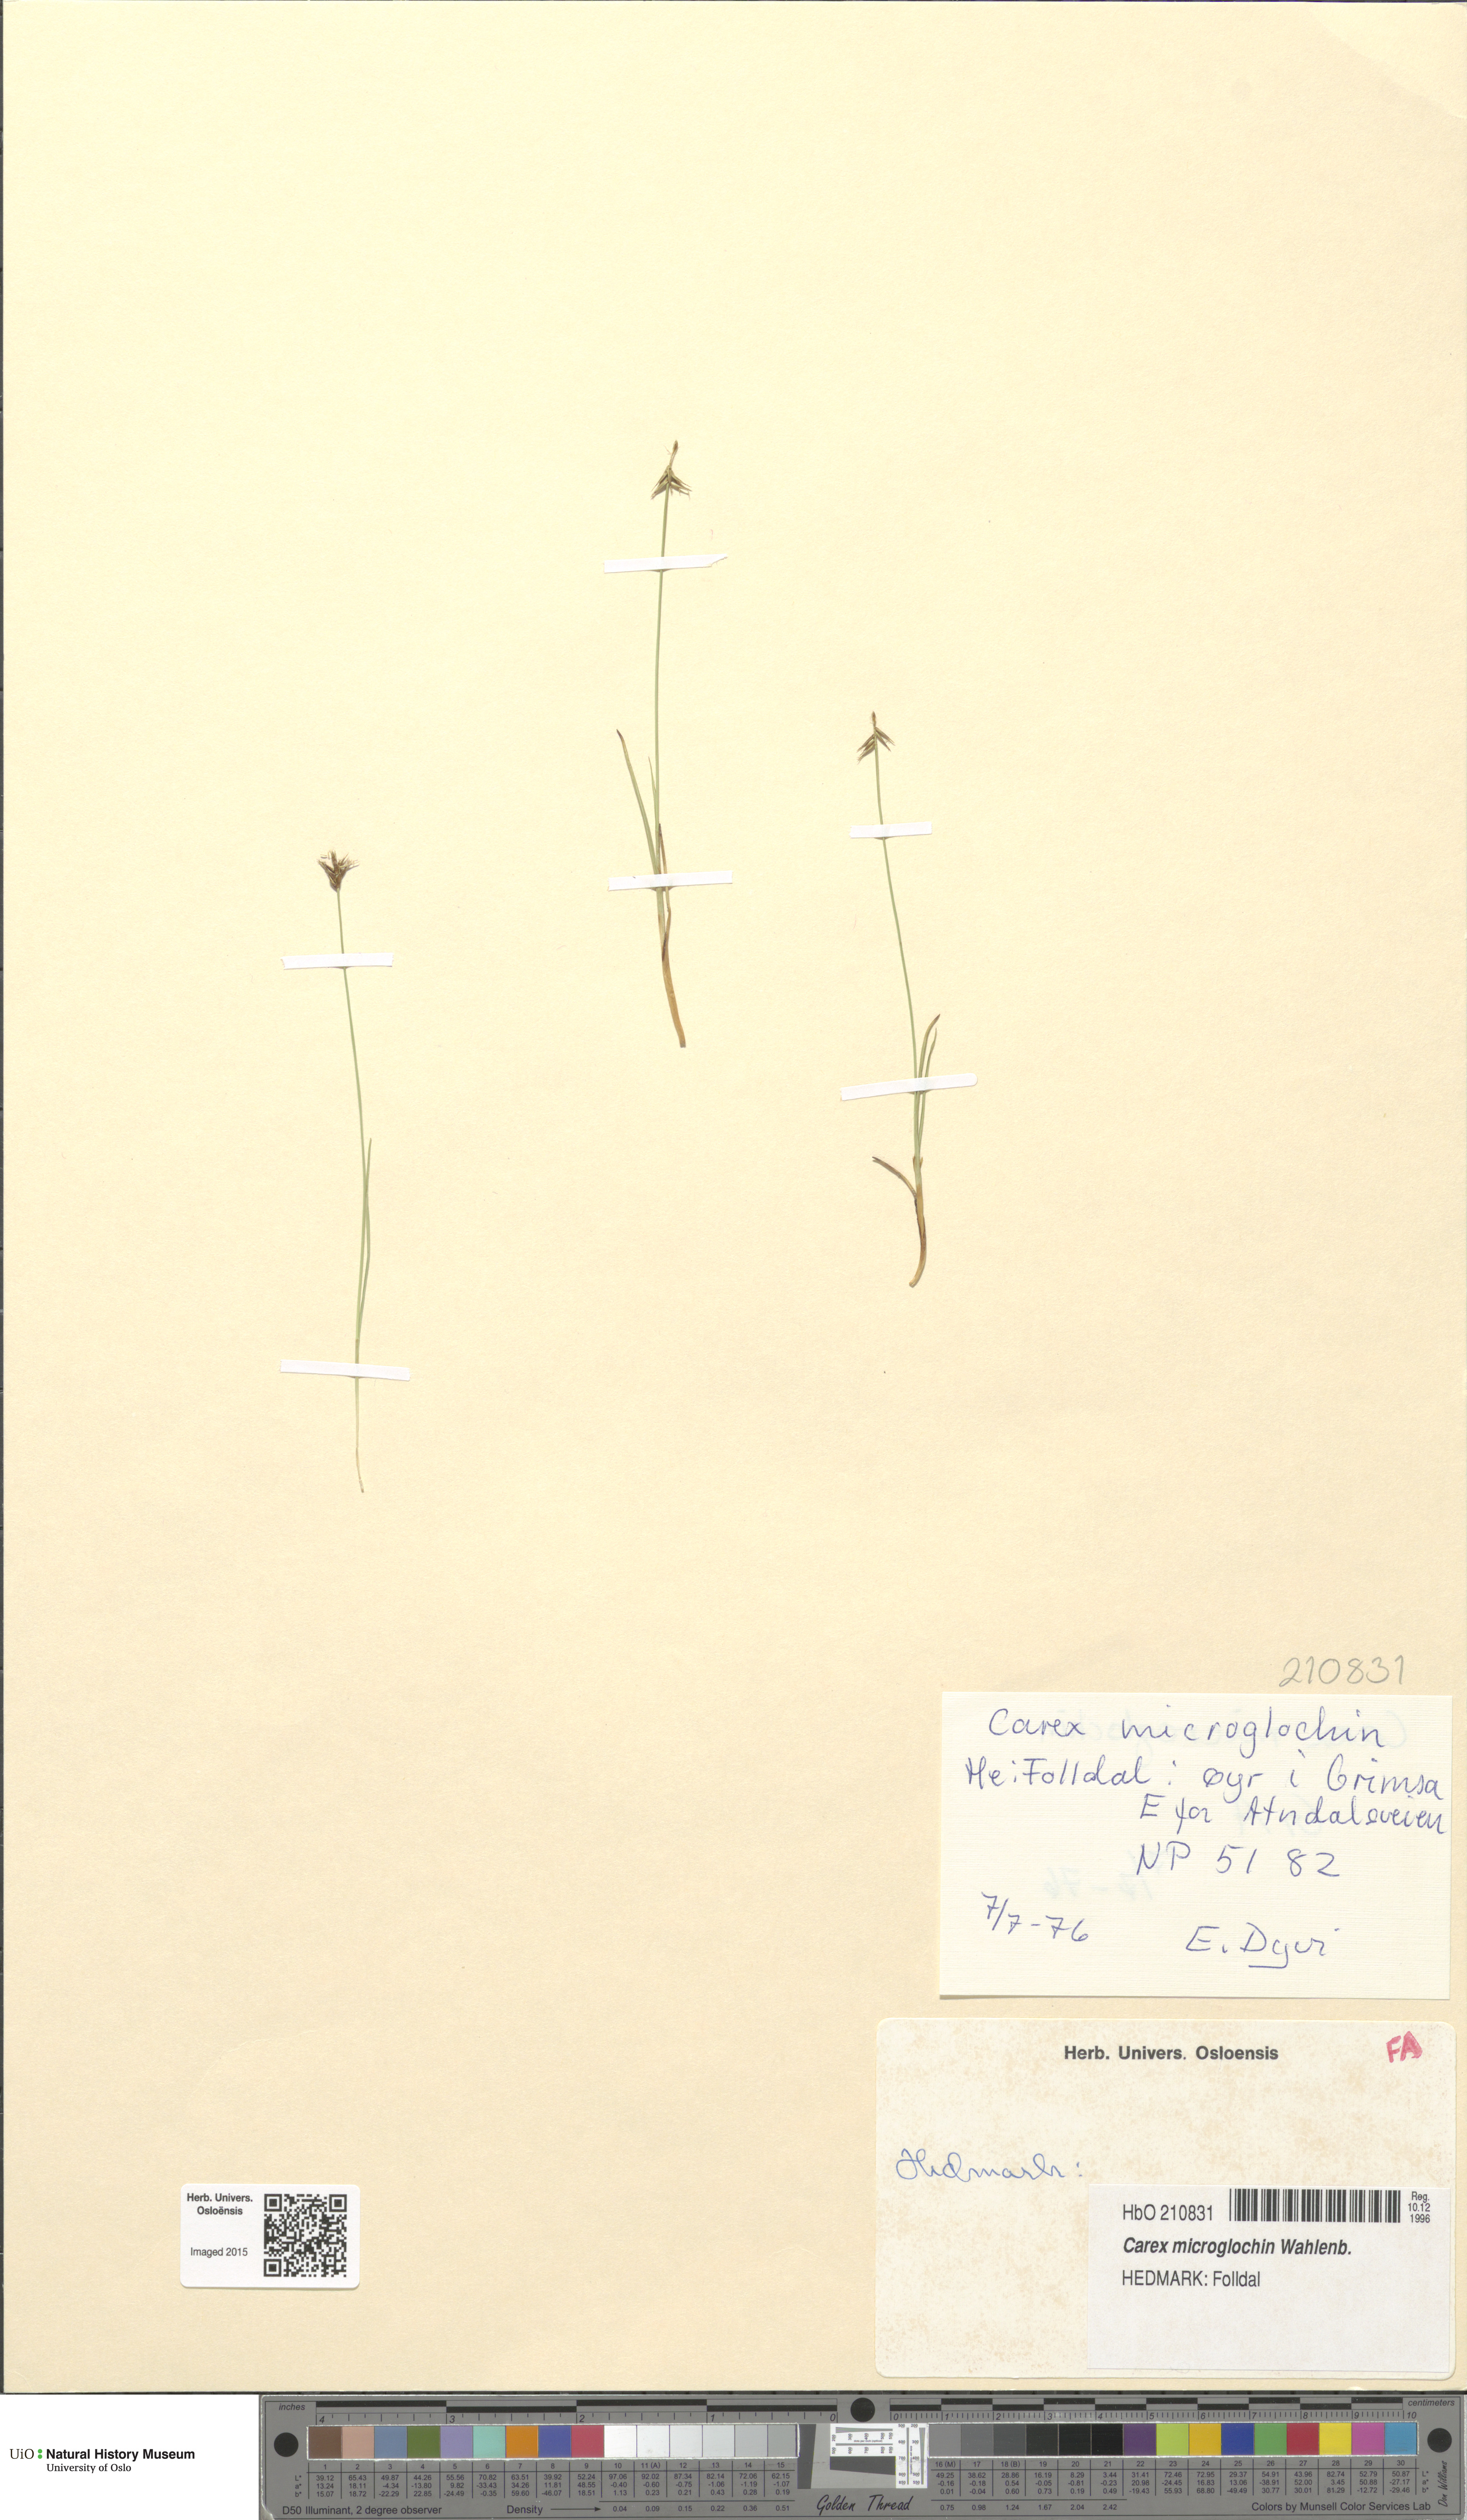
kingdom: Plantae
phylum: Tracheophyta
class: Liliopsida
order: Poales
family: Cyperaceae
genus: Carex
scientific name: Carex microglochin
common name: Bristle sedge
